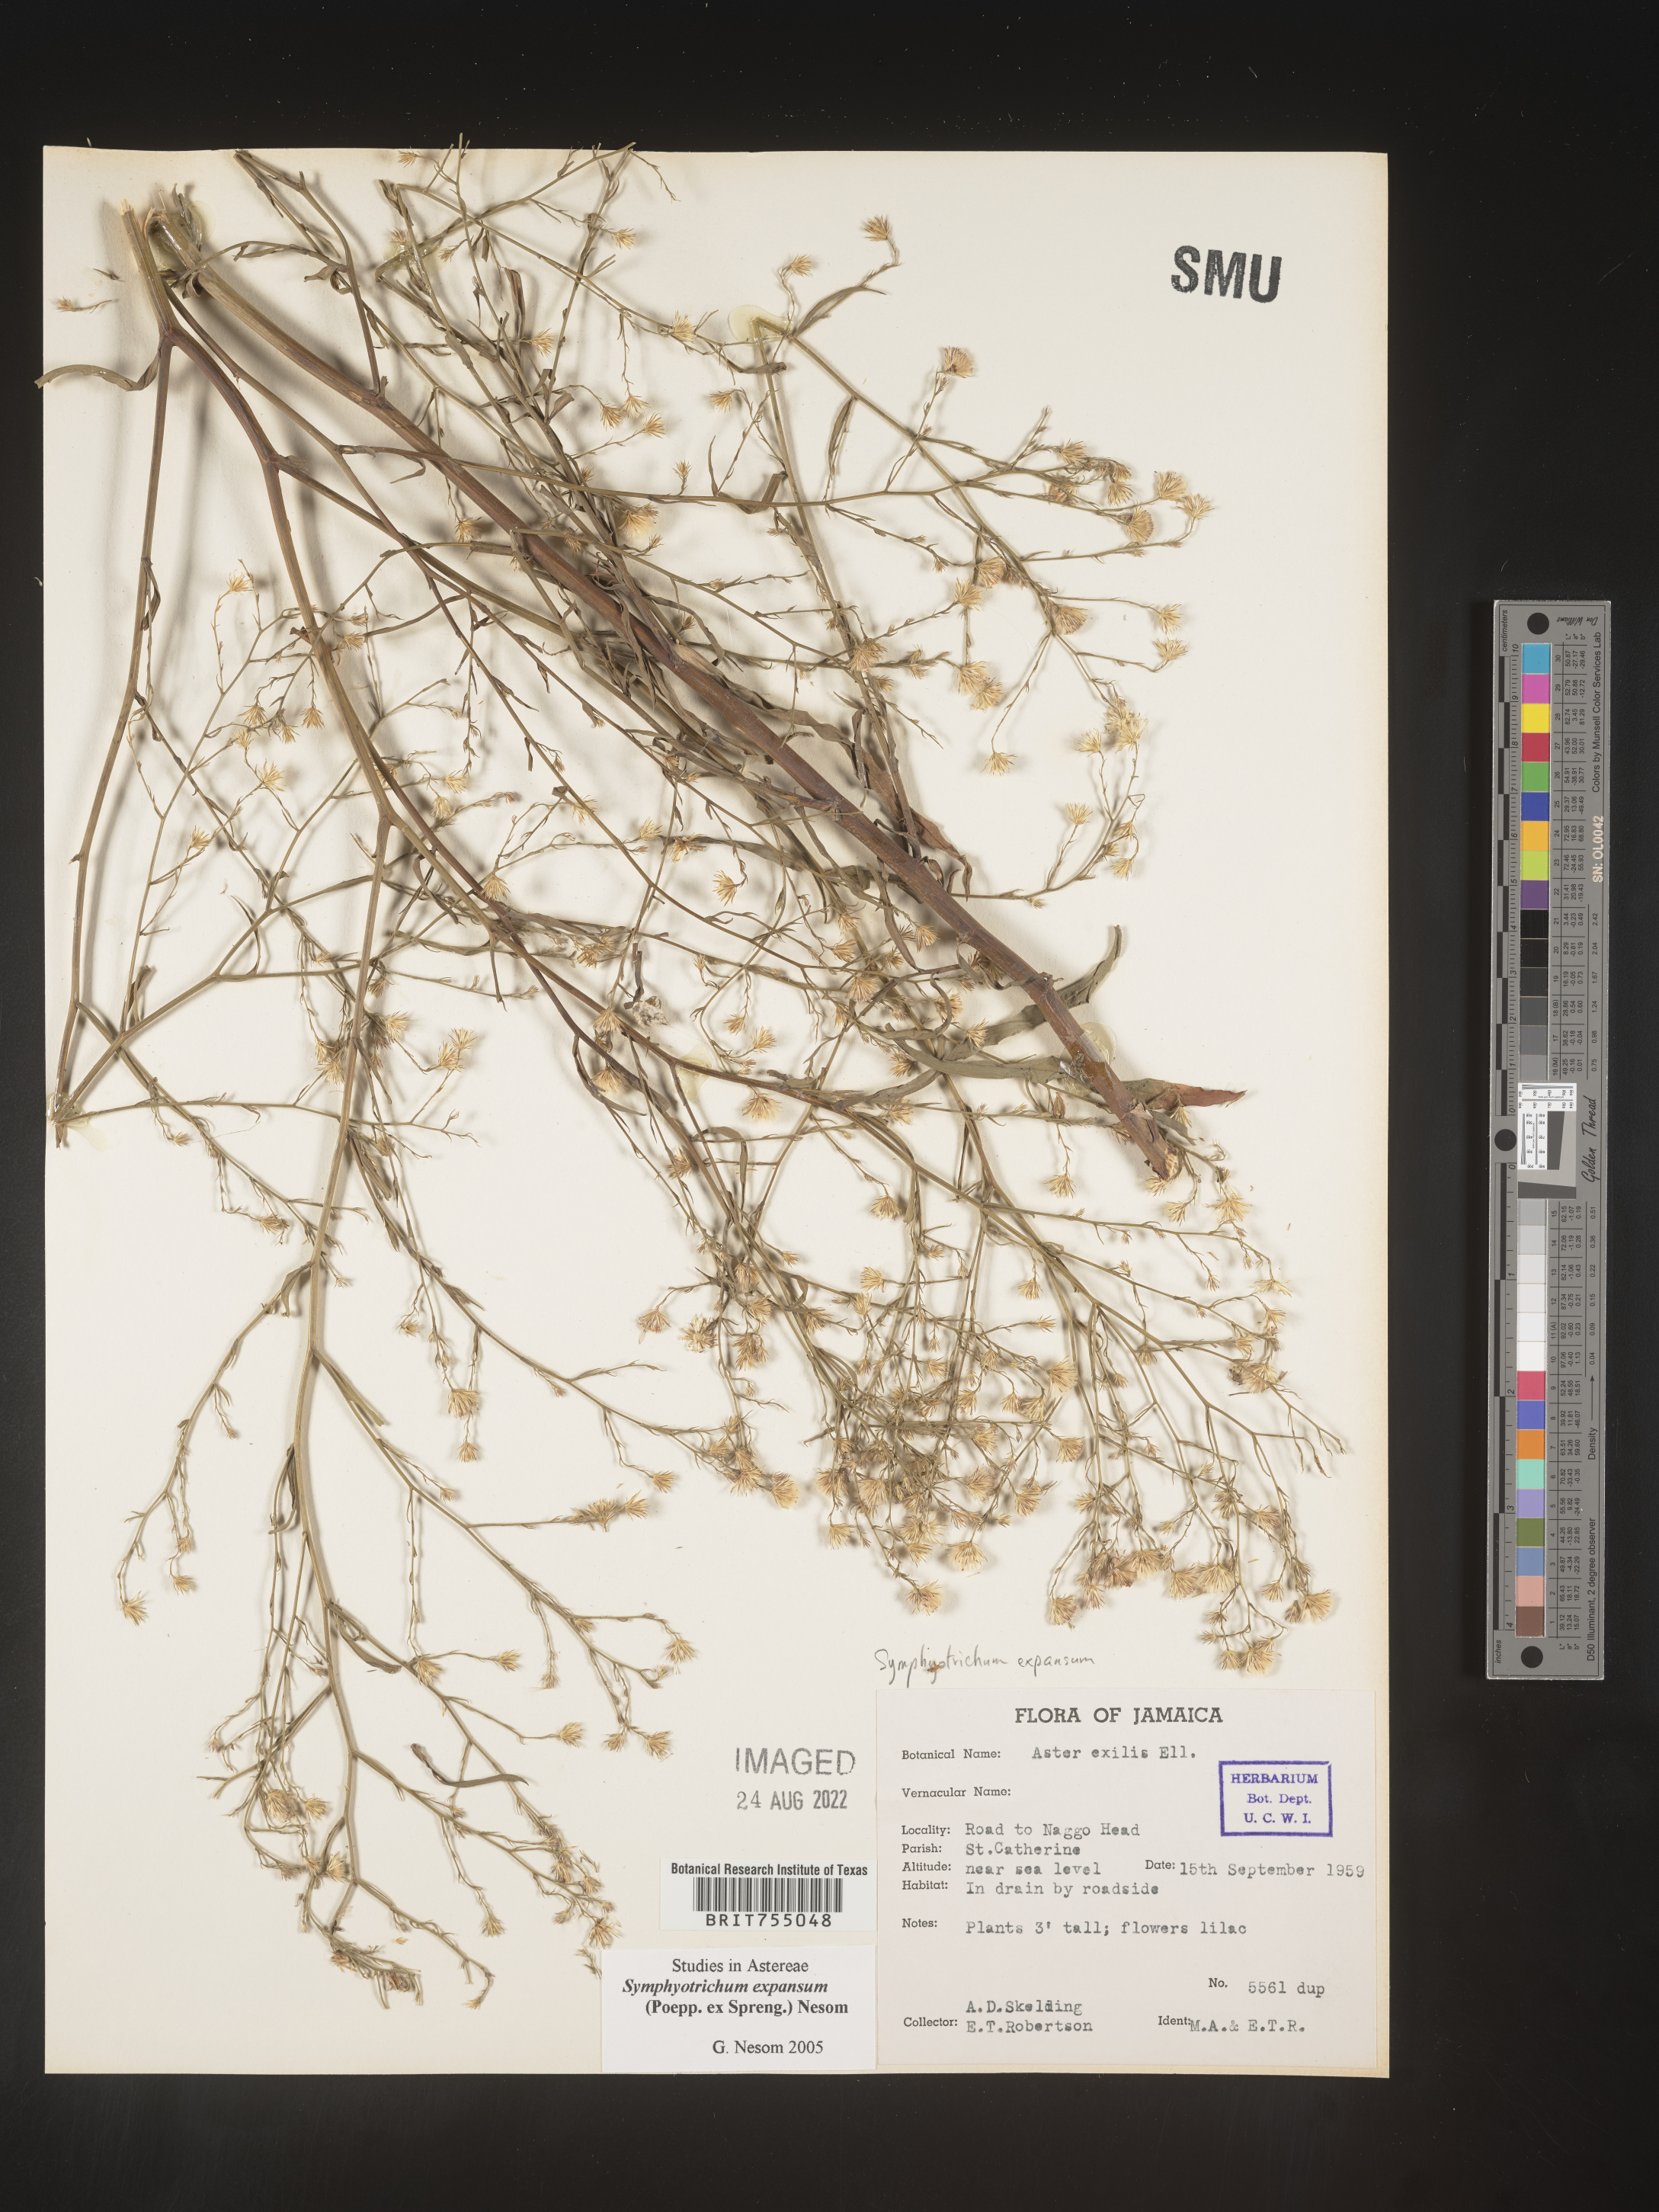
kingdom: Plantae
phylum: Tracheophyta
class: Magnoliopsida
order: Asterales
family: Asteraceae
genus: Symphyotrichum
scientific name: Symphyotrichum expansum
